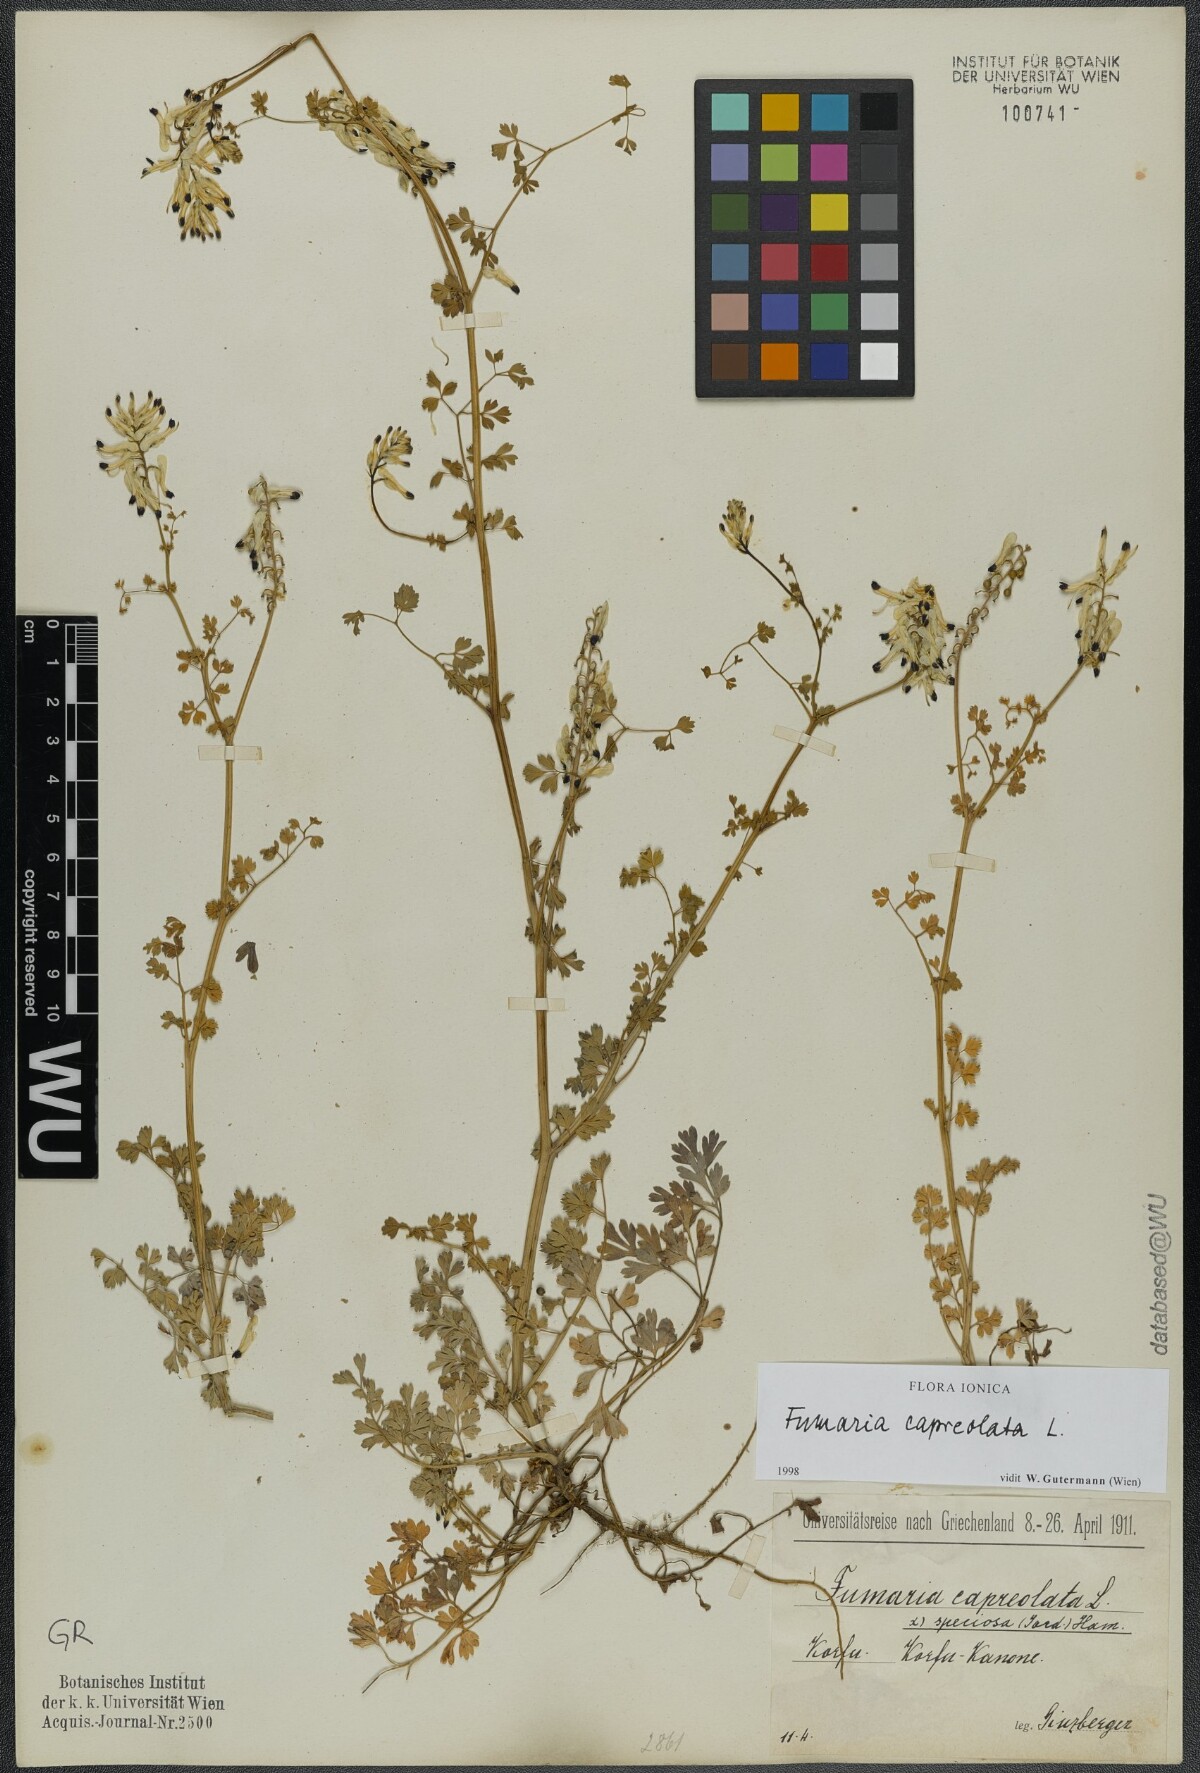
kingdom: Plantae
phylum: Tracheophyta
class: Magnoliopsida
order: Ranunculales
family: Papaveraceae
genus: Fumaria
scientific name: Fumaria capreolata
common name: White ramping-fumitory
